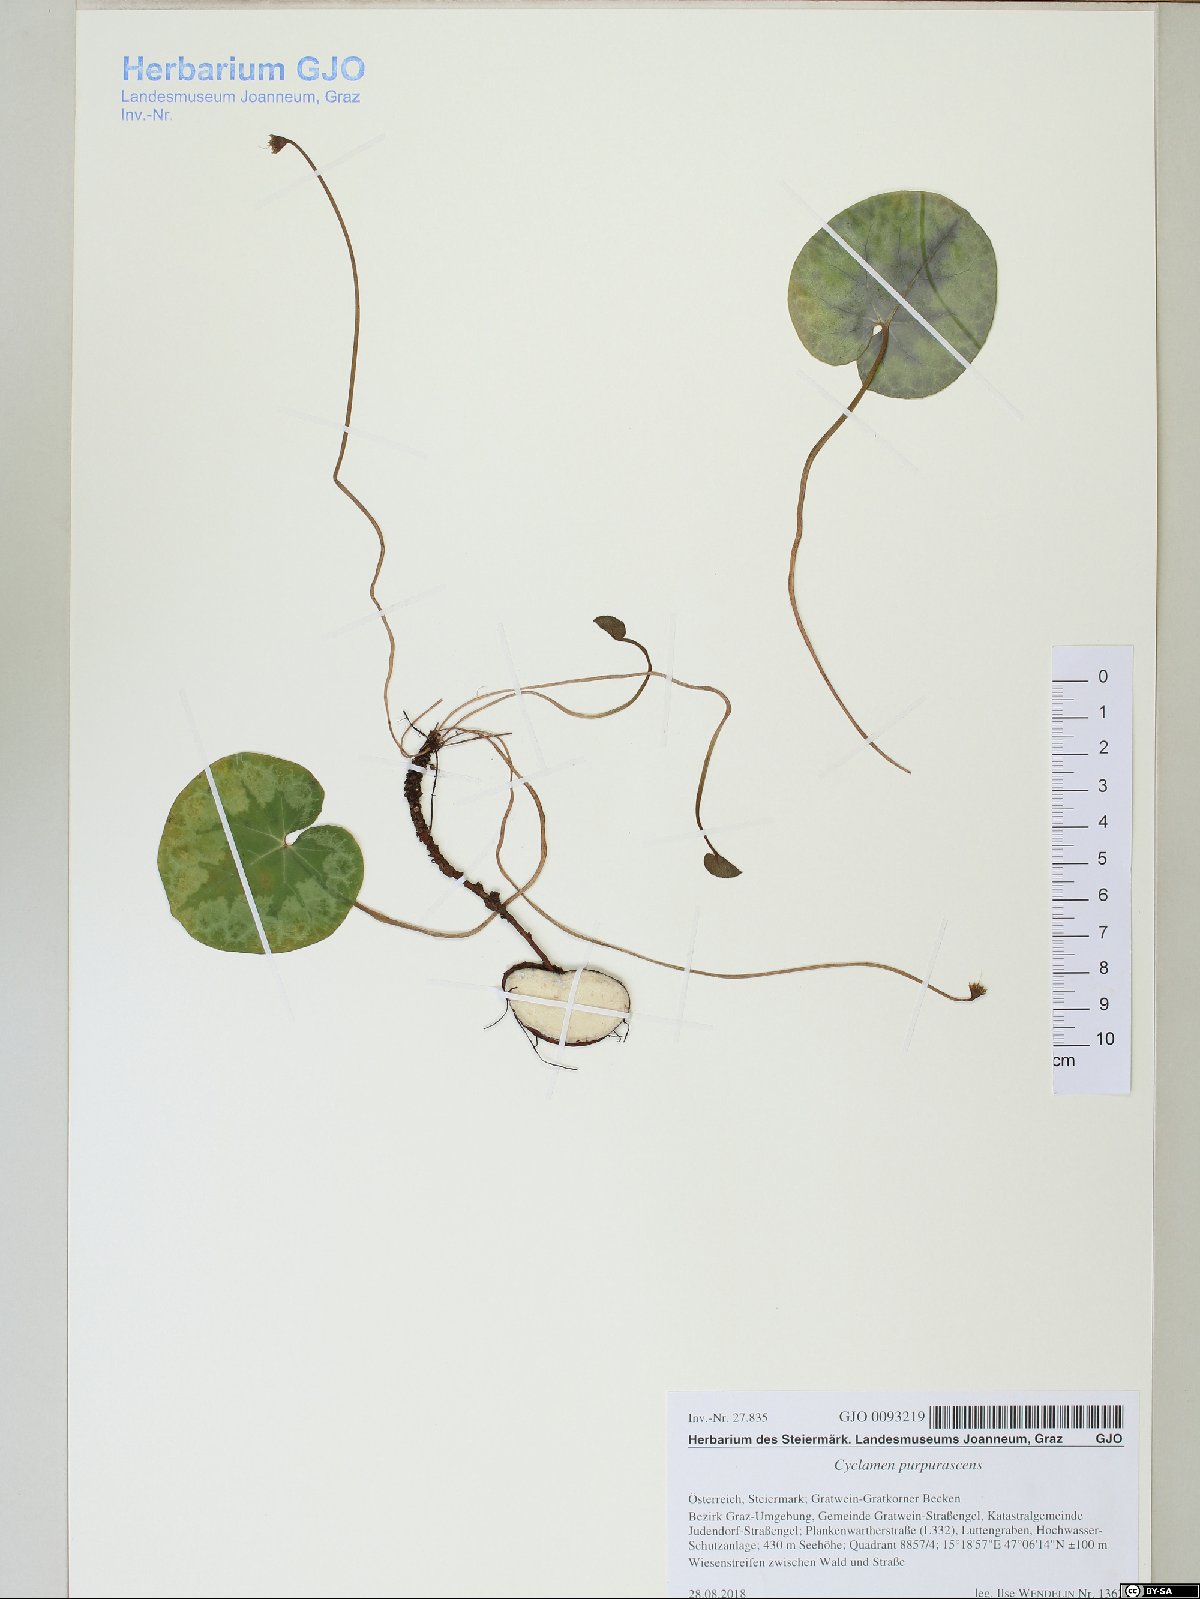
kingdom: Plantae
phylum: Tracheophyta
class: Magnoliopsida
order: Ericales
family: Primulaceae
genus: Cyclamen
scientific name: Cyclamen purpurascens
